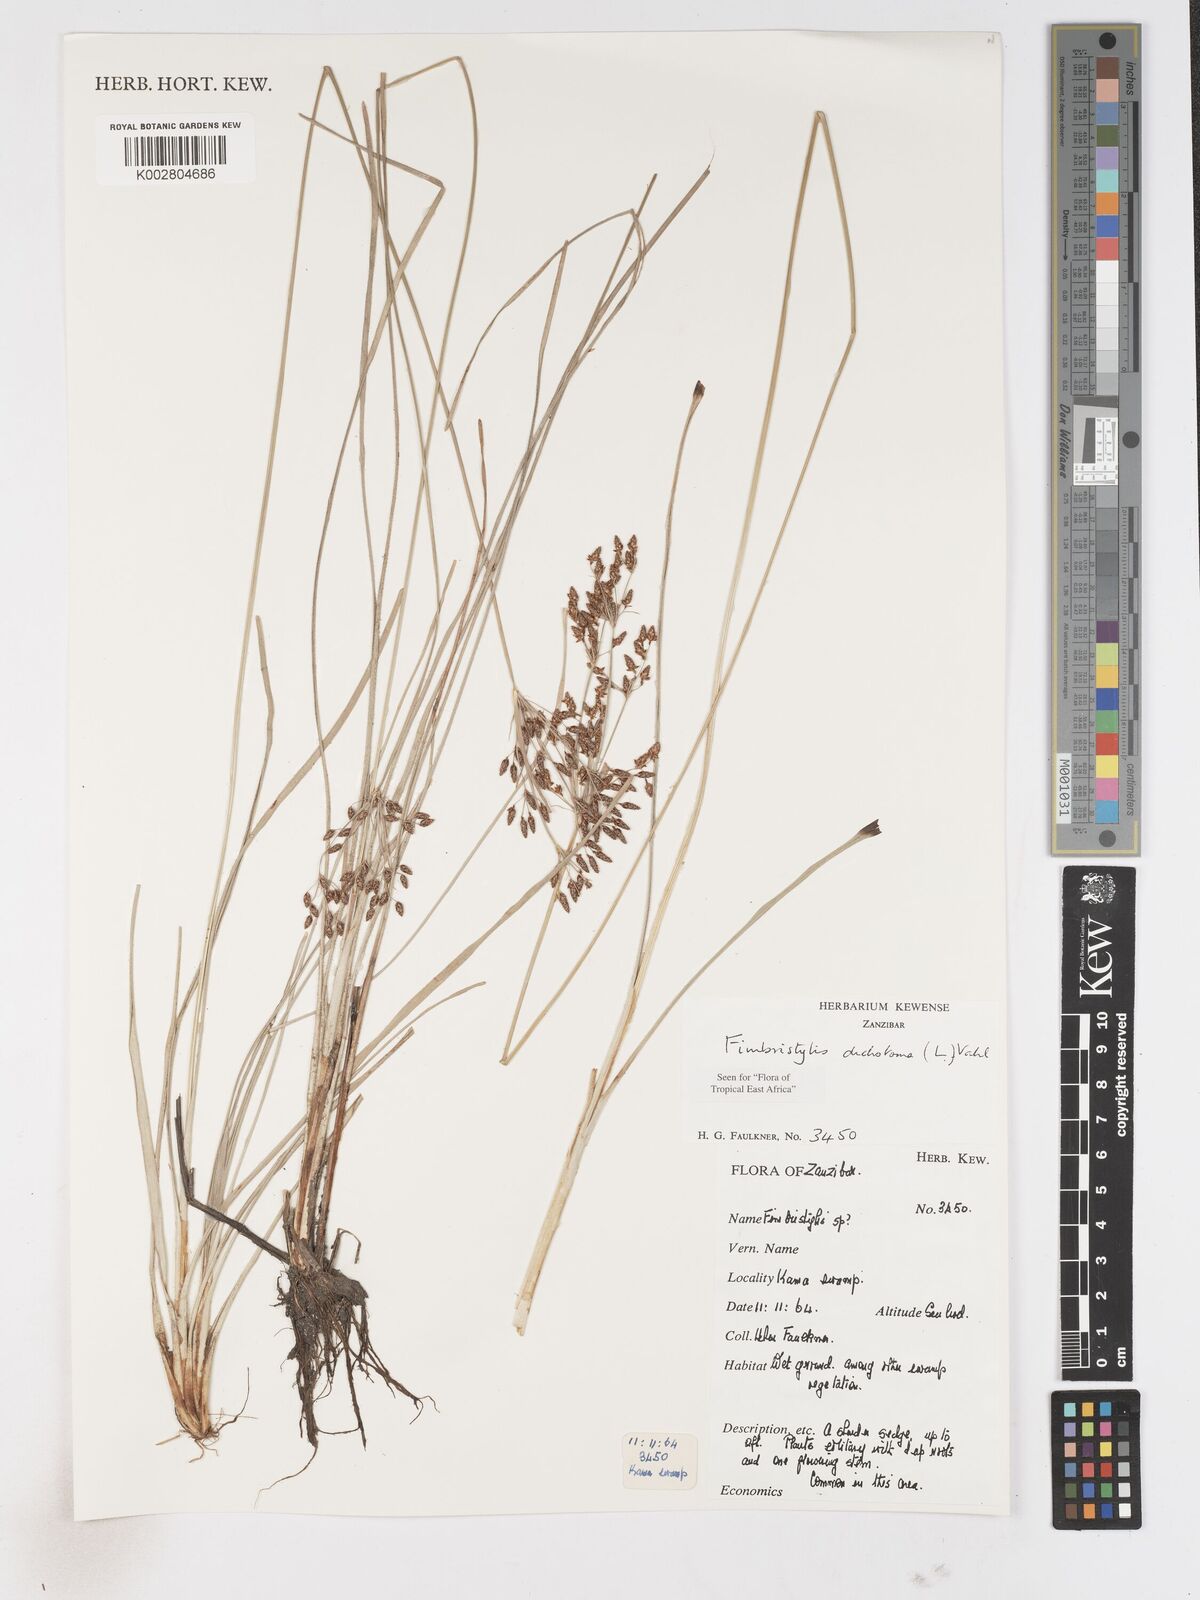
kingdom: Plantae
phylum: Tracheophyta
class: Liliopsida
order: Poales
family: Cyperaceae
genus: Fimbristylis
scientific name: Fimbristylis dichotoma
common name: Forked fimbry
